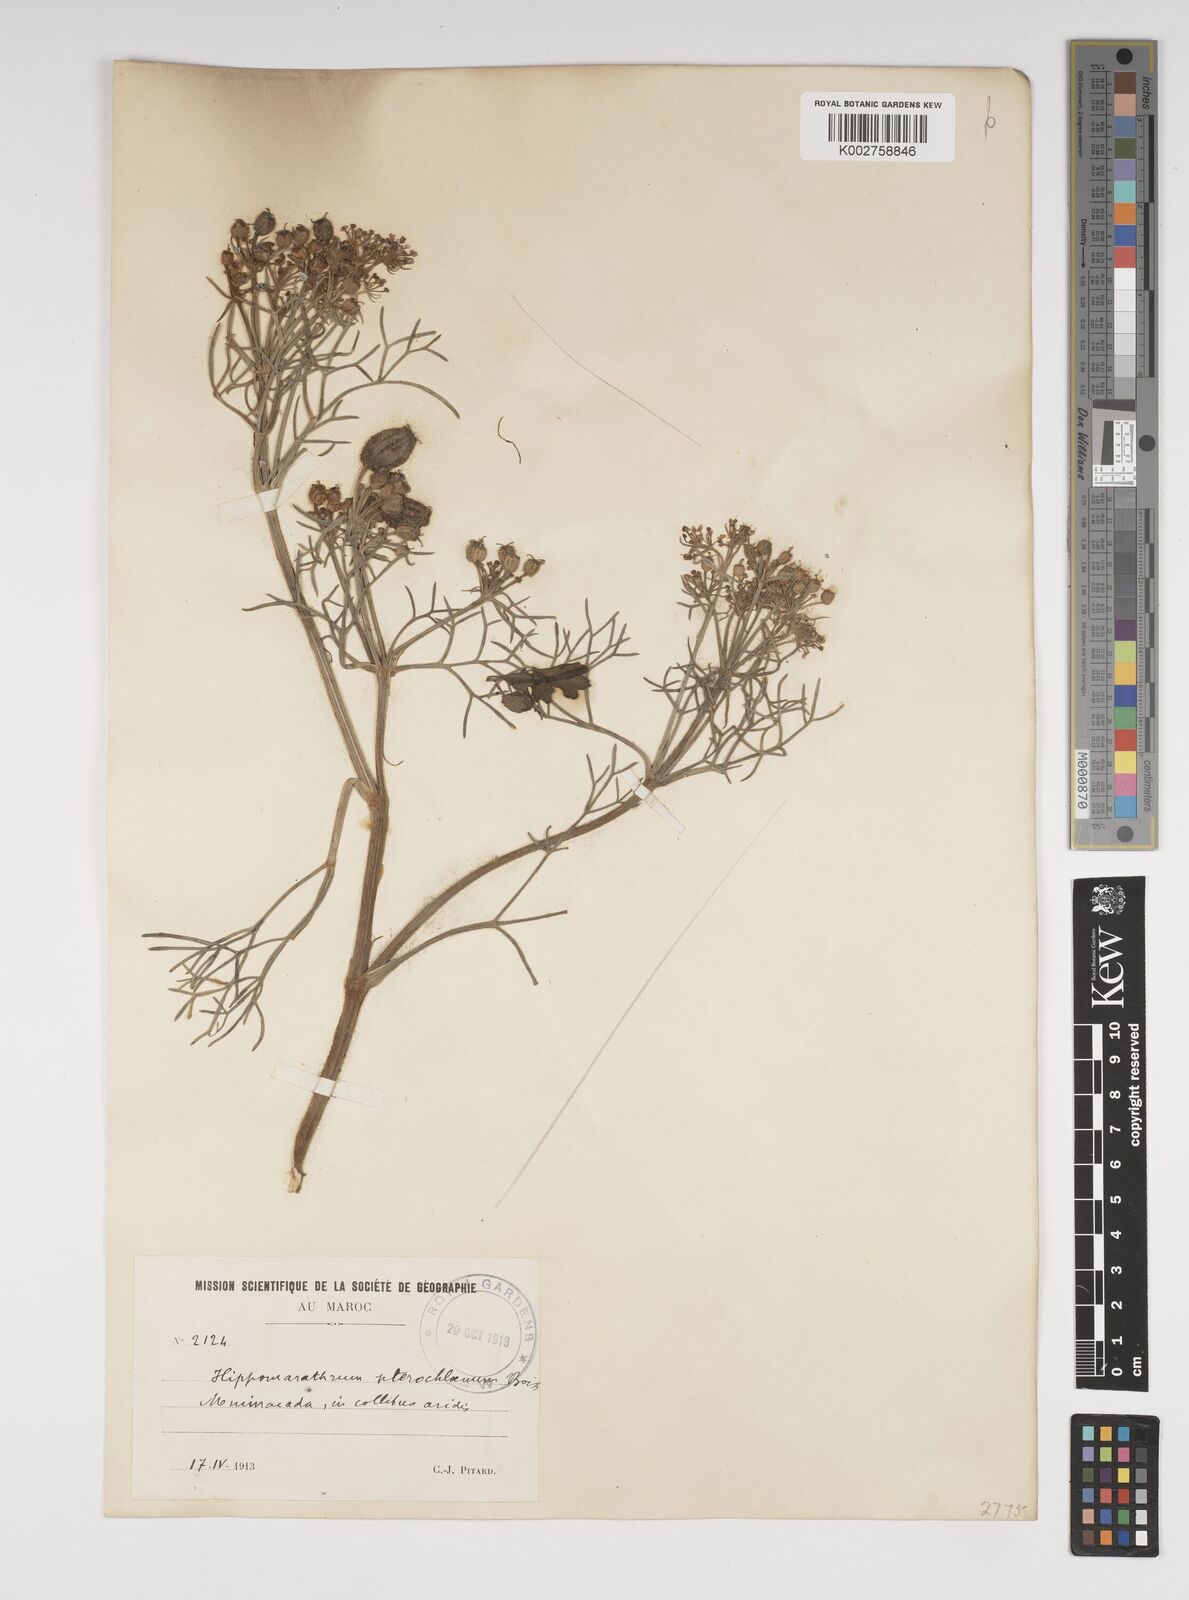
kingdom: Plantae
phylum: Tracheophyta
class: Magnoliopsida
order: Apiales
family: Apiaceae
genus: Cachrys
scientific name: Cachrys sicula
